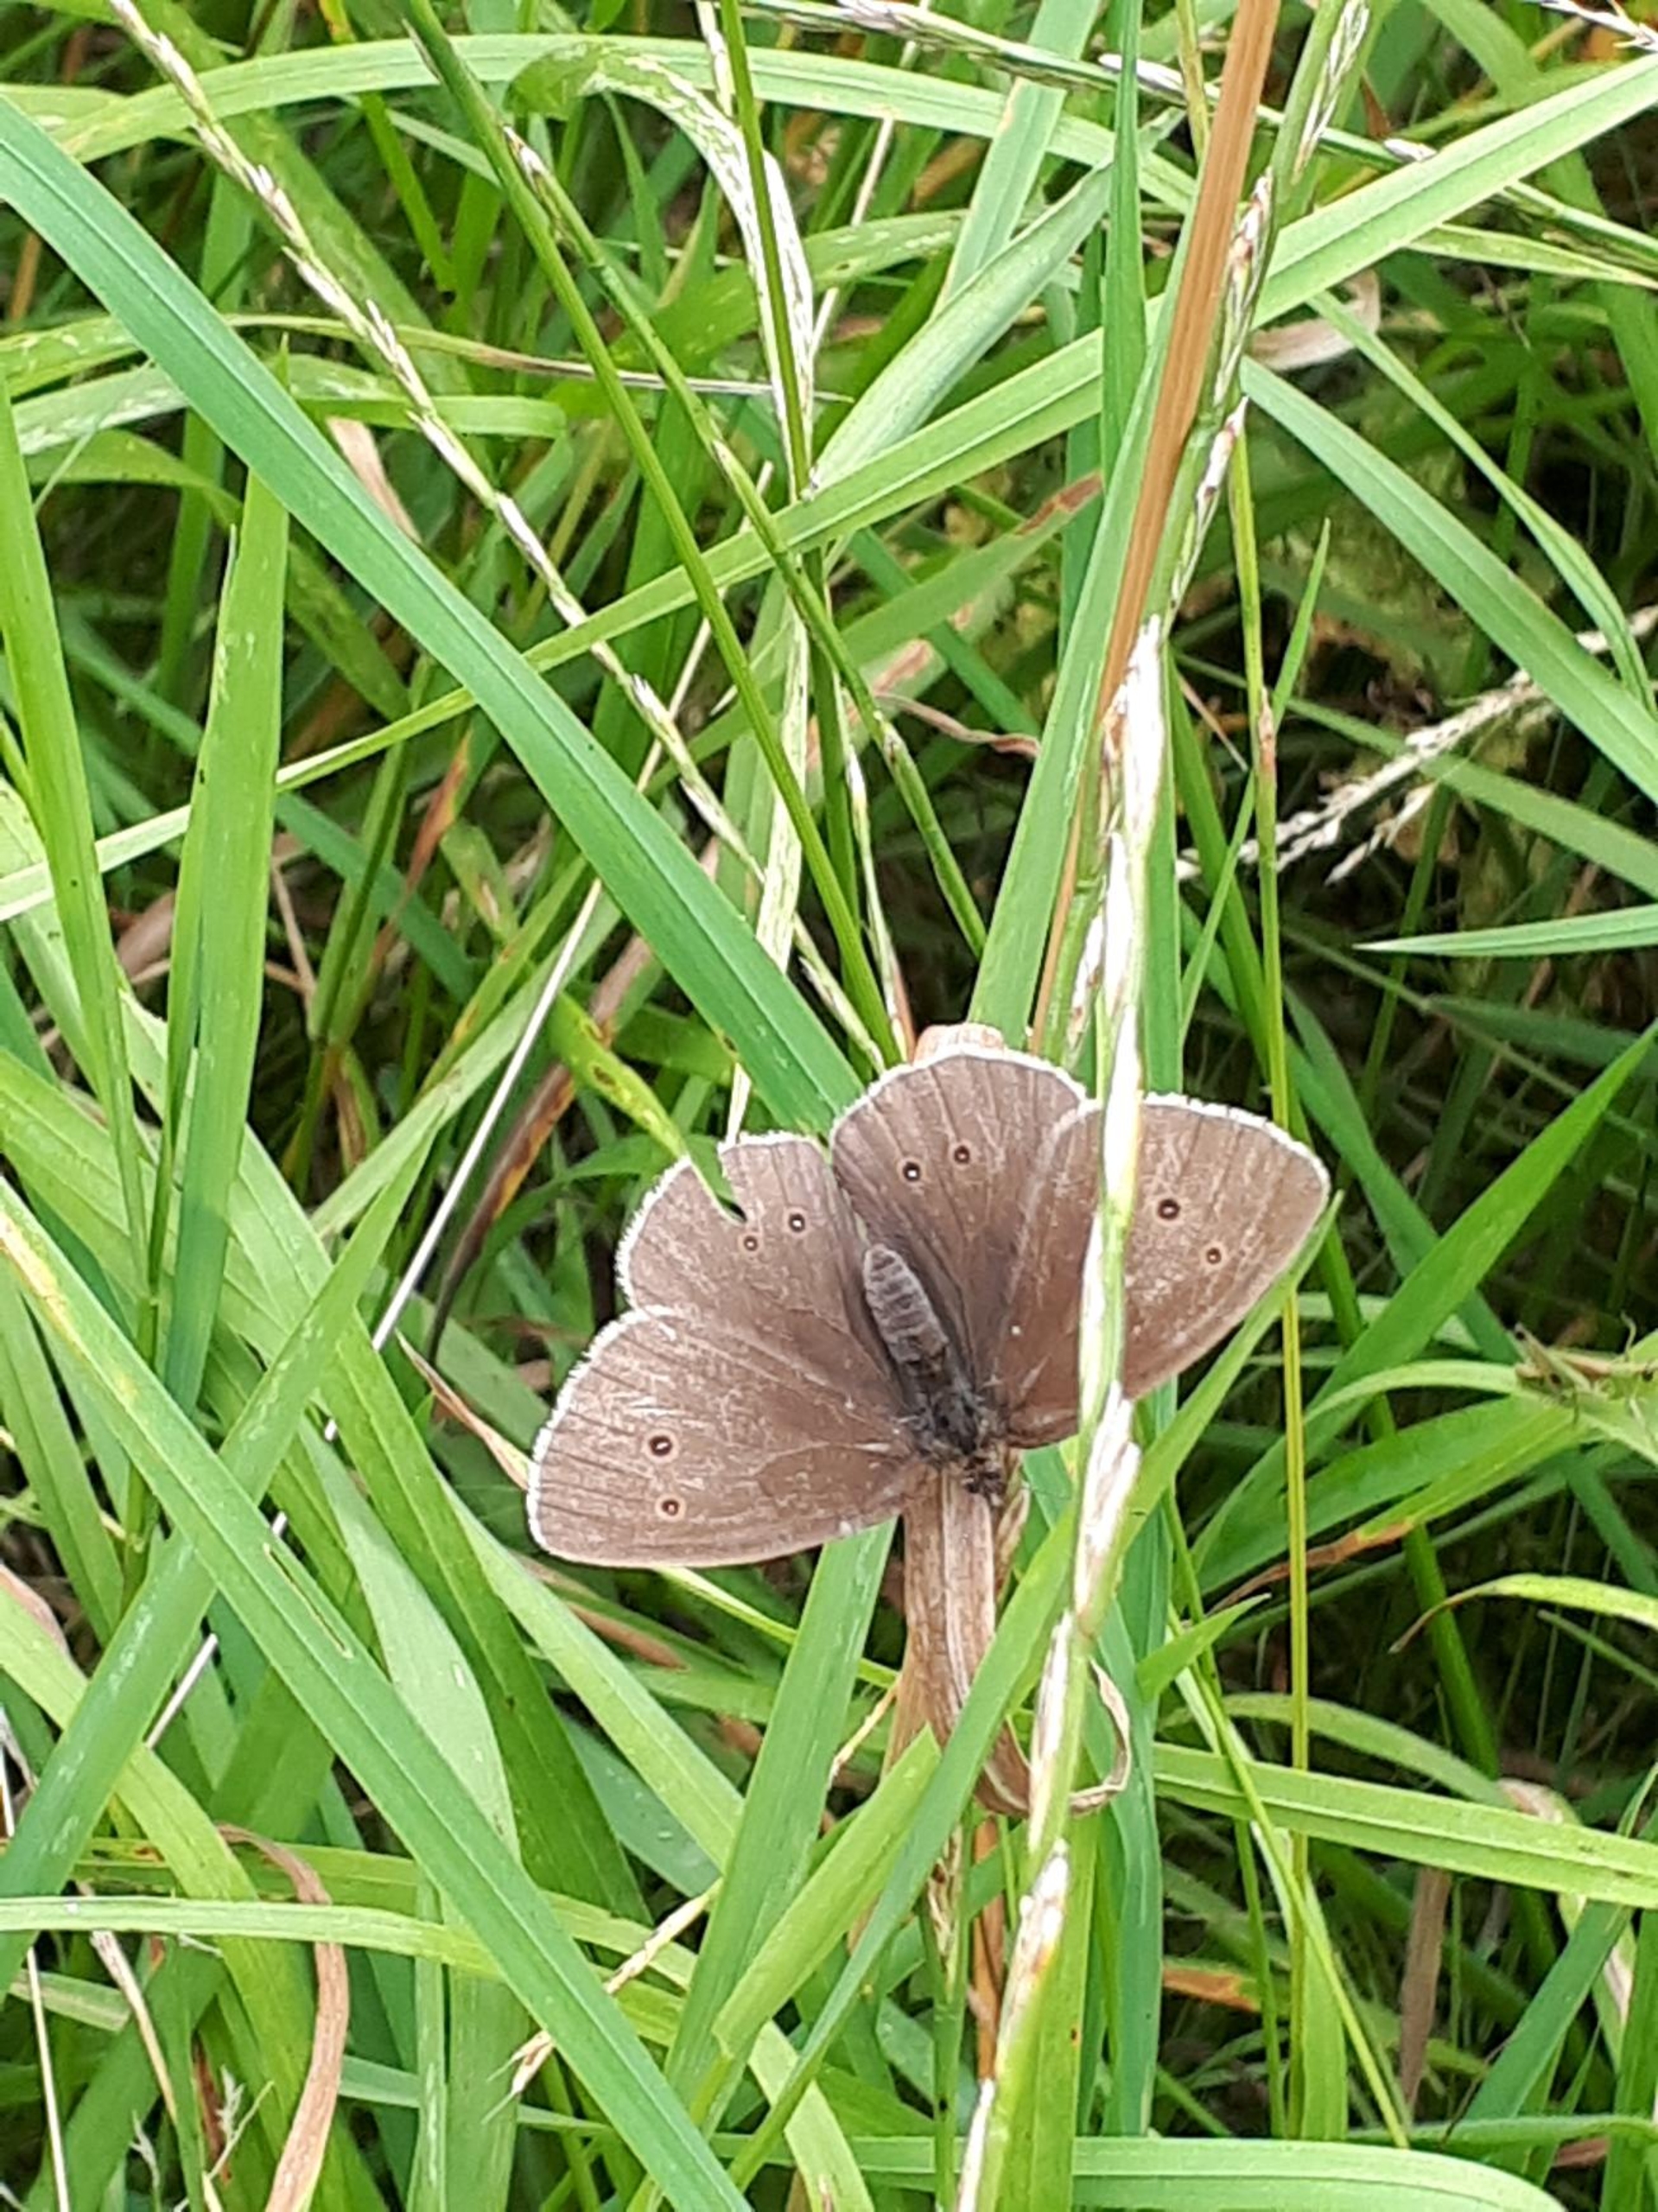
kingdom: Animalia
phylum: Arthropoda
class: Insecta
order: Lepidoptera
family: Nymphalidae
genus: Aphantopus
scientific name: Aphantopus hyperantus
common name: Engrandøje
